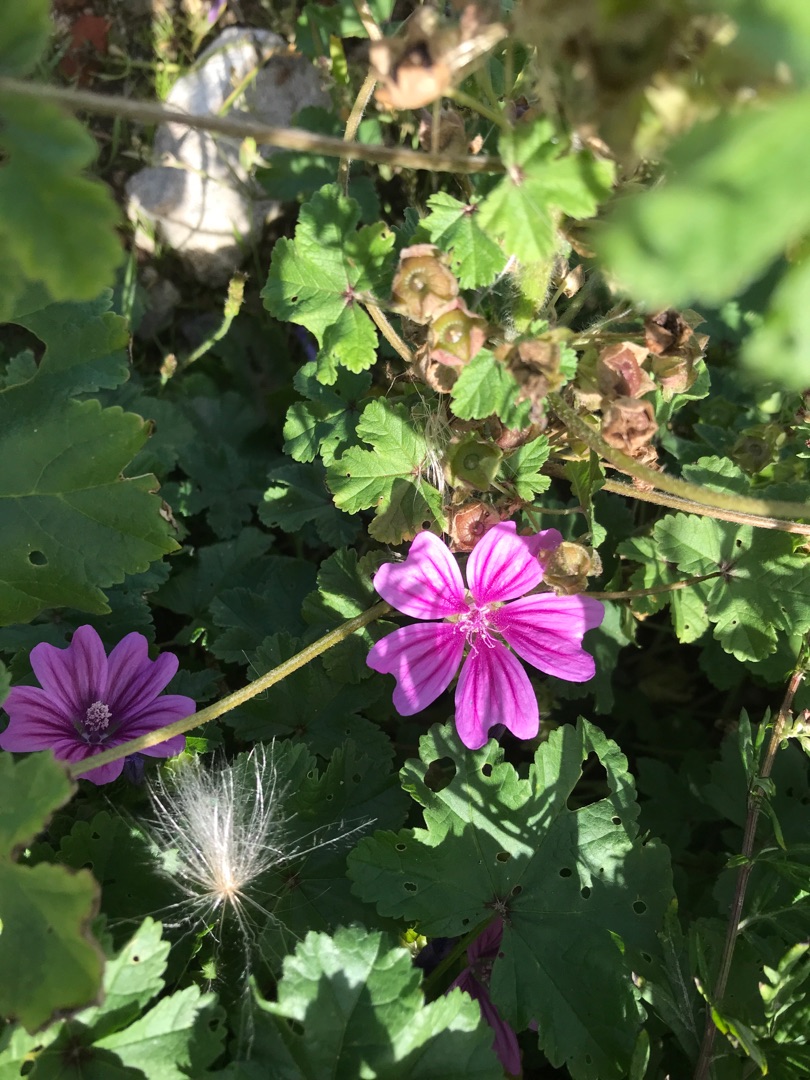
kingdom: Plantae
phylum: Tracheophyta
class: Magnoliopsida
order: Malvales
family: Malvaceae
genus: Malva
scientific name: Malva sylvestris
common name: Almindelig katost
